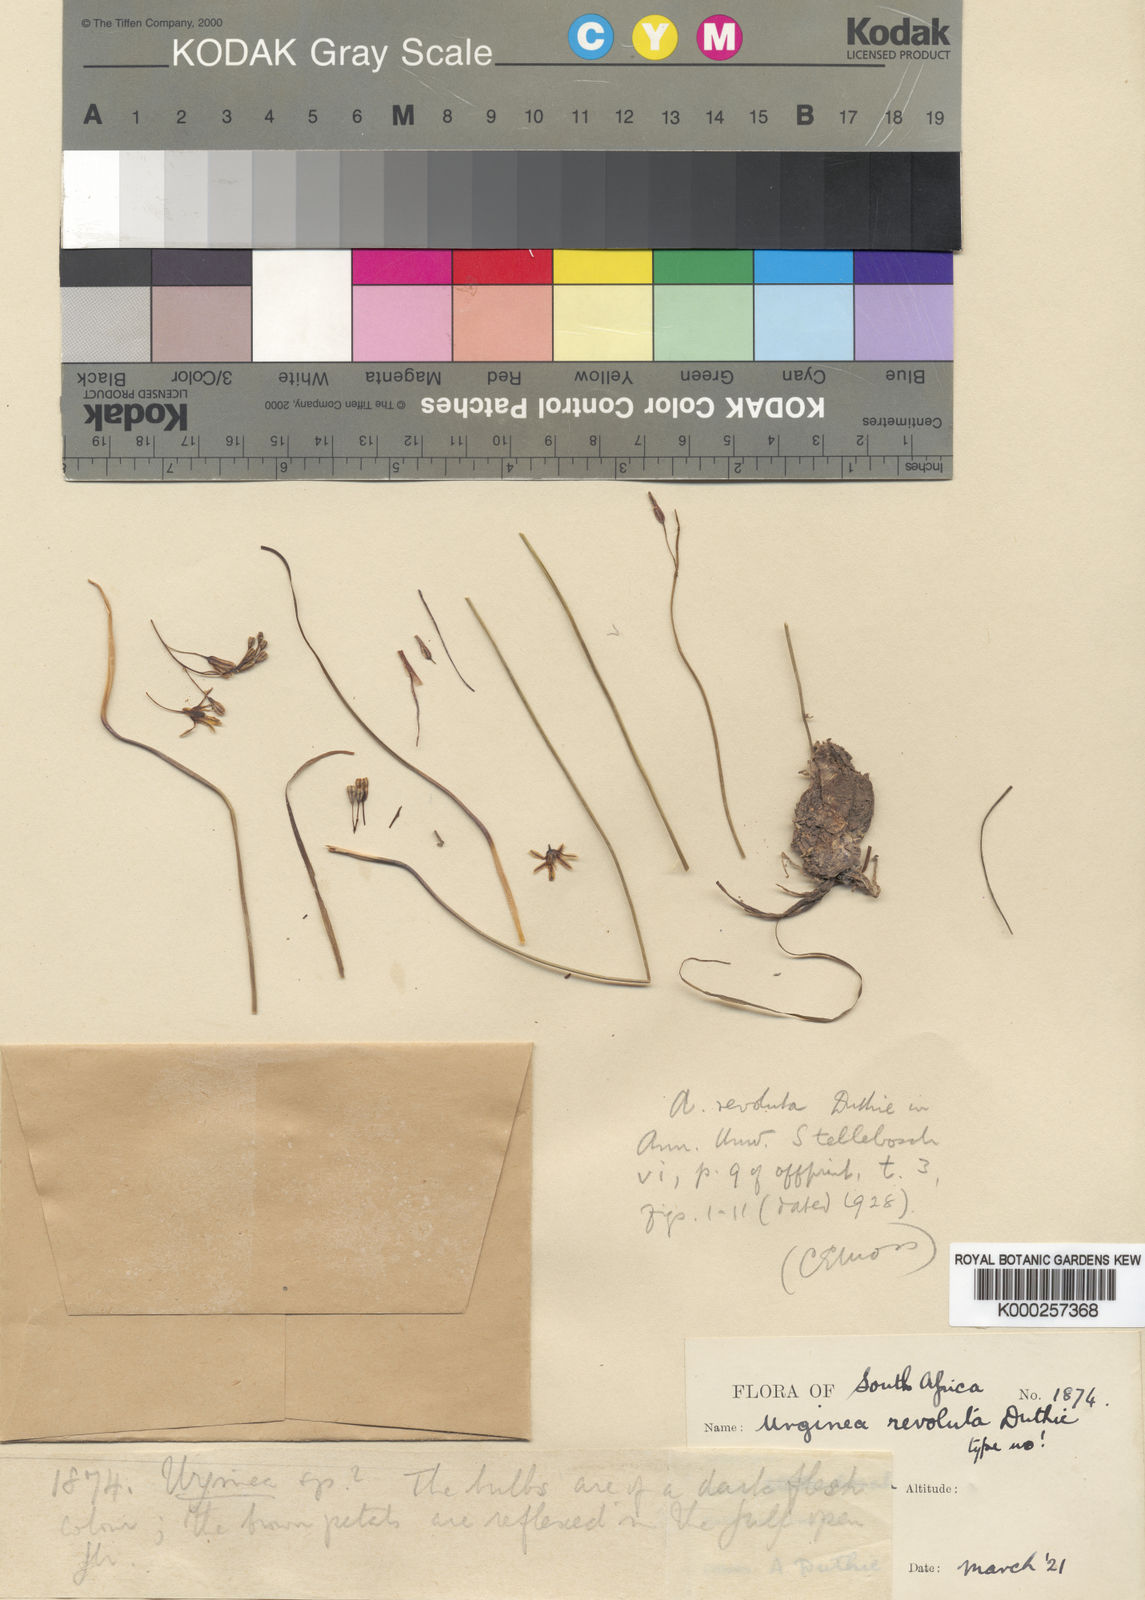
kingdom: Plantae
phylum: Tracheophyta
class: Liliopsida
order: Asparagales
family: Asparagaceae
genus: Drimia
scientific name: Drimia hesperantha
